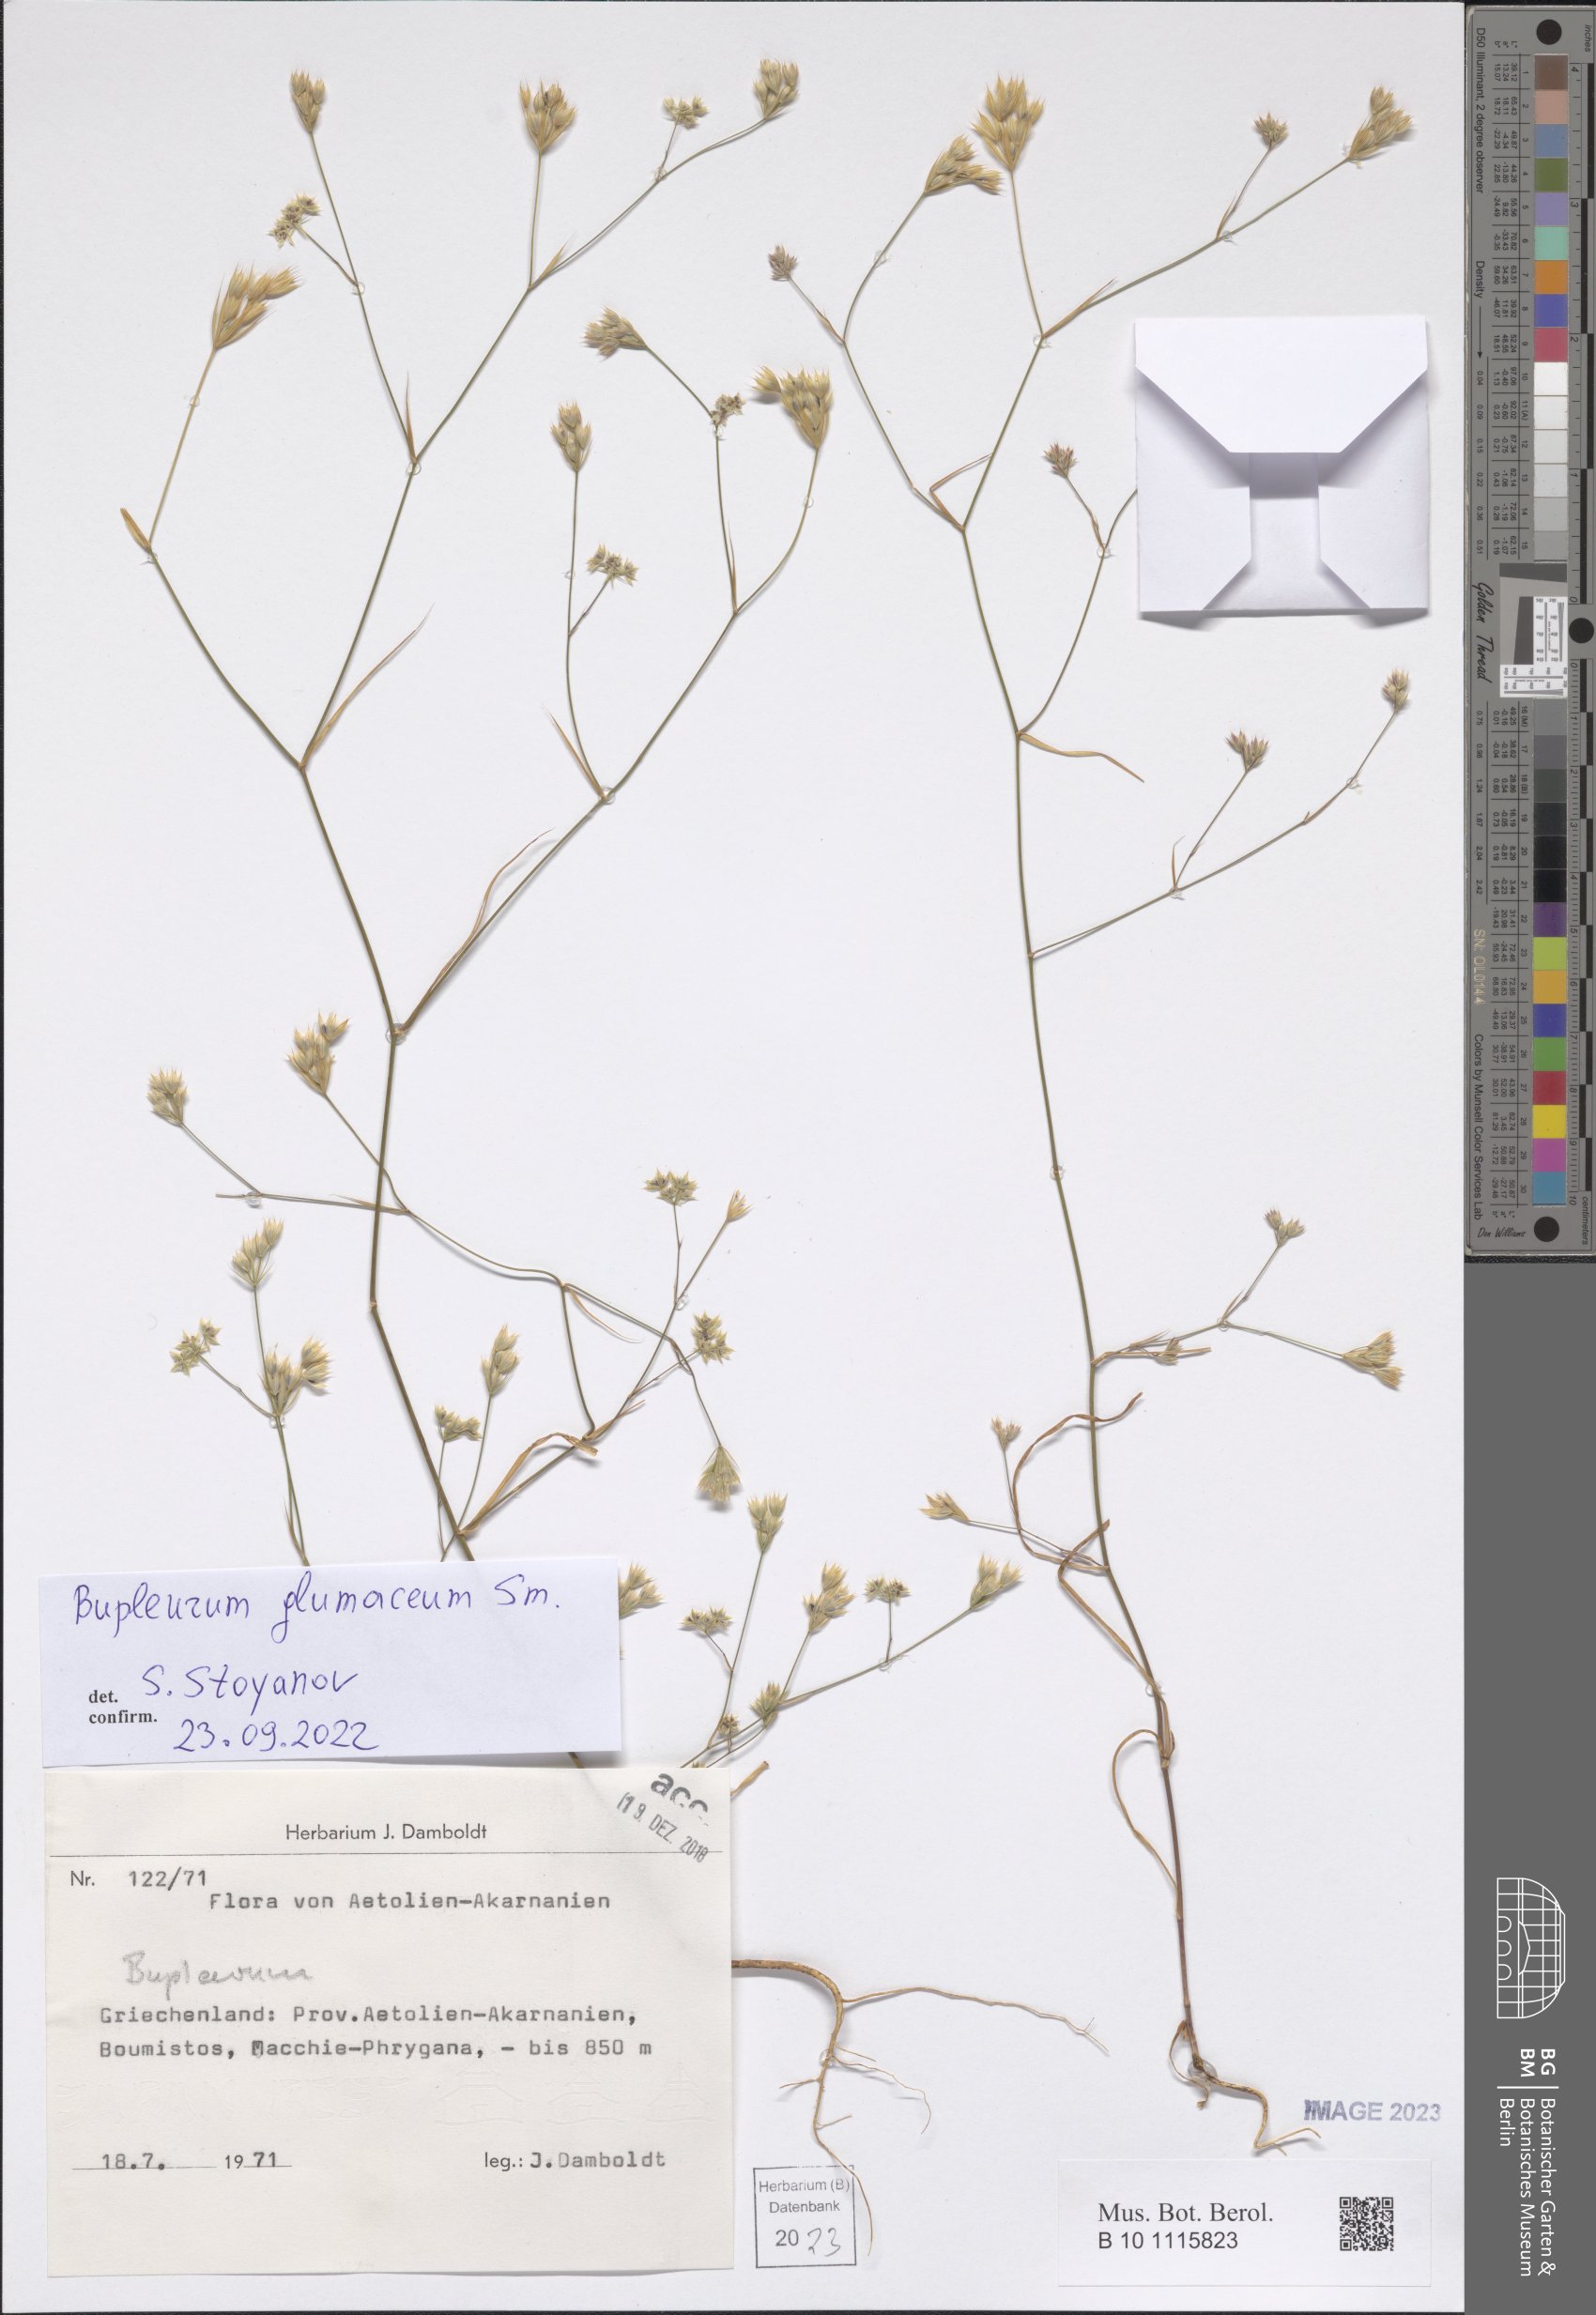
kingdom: Plantae
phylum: Tracheophyta
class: Magnoliopsida
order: Apiales
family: Apiaceae
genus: Bupleurum
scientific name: Bupleurum glumaceum
